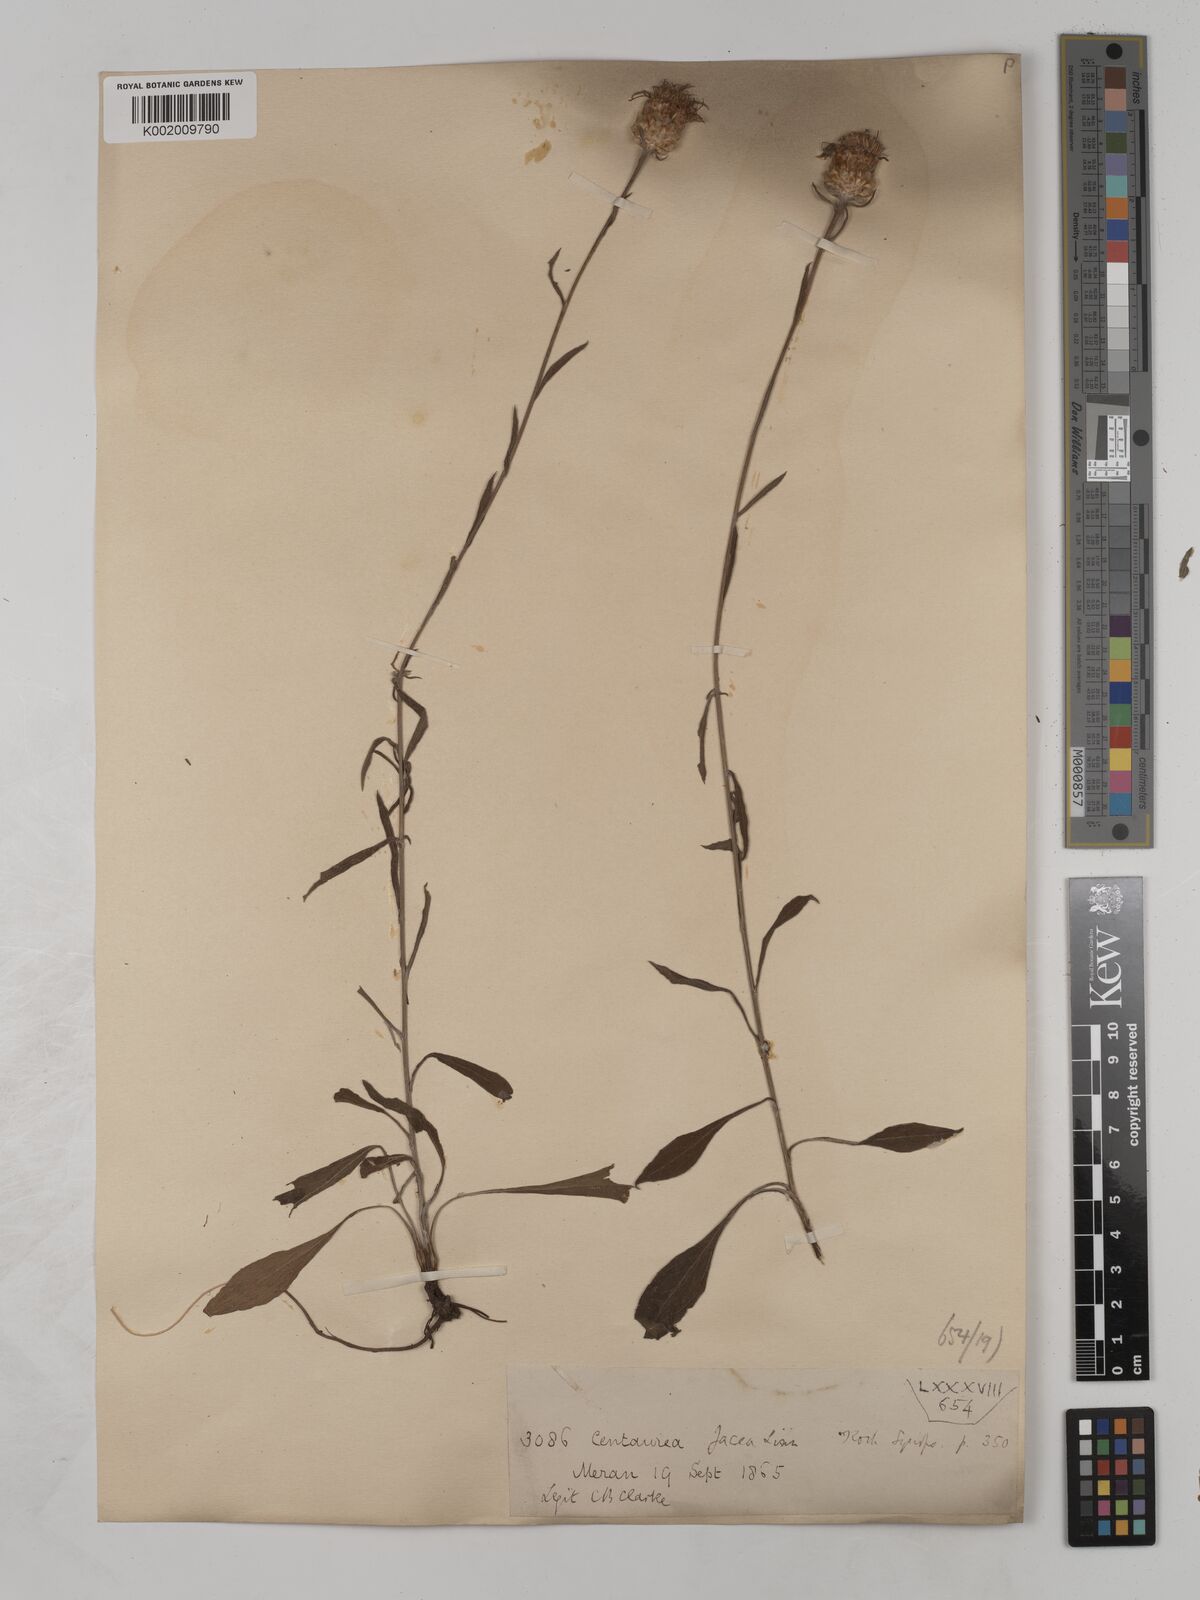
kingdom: Plantae
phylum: Tracheophyta
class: Magnoliopsida
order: Asterales
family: Asteraceae
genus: Centaurea
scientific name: Centaurea timbalii
